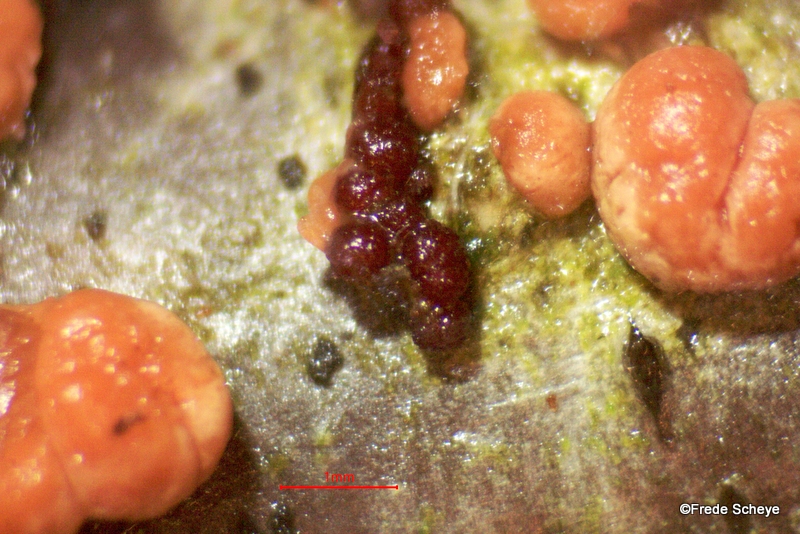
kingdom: Fungi
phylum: Ascomycota
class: Sordariomycetes
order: Hypocreales
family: Nectriaceae
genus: Nectria
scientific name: Nectria cinnabarina
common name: almindelig cinnobersvamp
